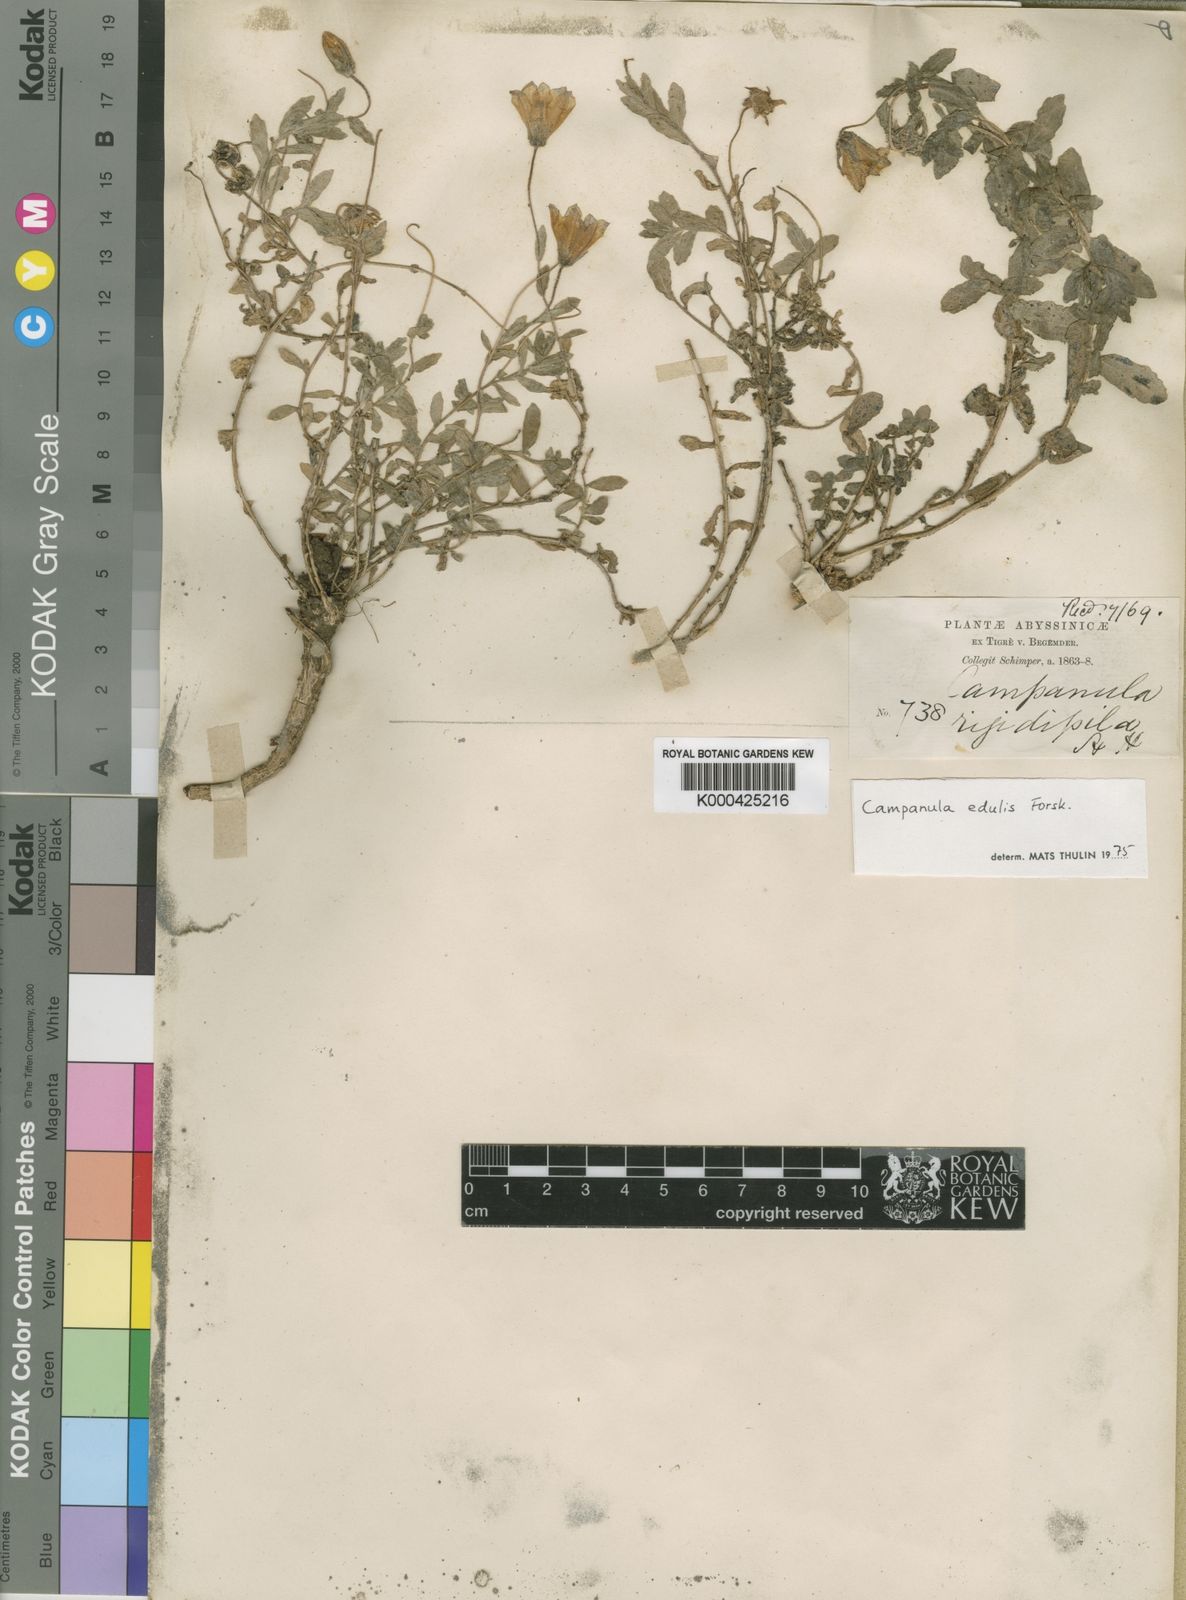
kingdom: Plantae
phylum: Tracheophyta
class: Magnoliopsida
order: Asterales
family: Campanulaceae
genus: Campanula
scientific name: Campanula edulis
